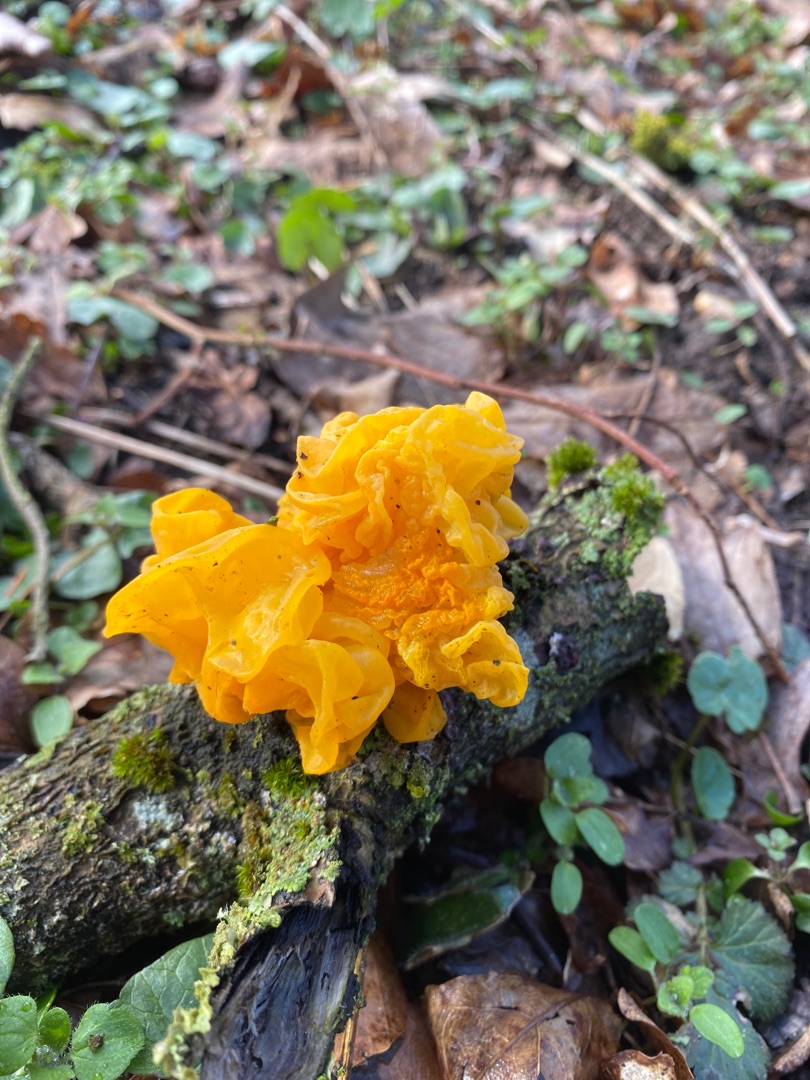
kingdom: Fungi
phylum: Basidiomycota
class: Tremellomycetes
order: Tremellales
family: Tremellaceae
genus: Tremella
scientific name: Tremella mesenterica
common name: Gul bævresvamp
